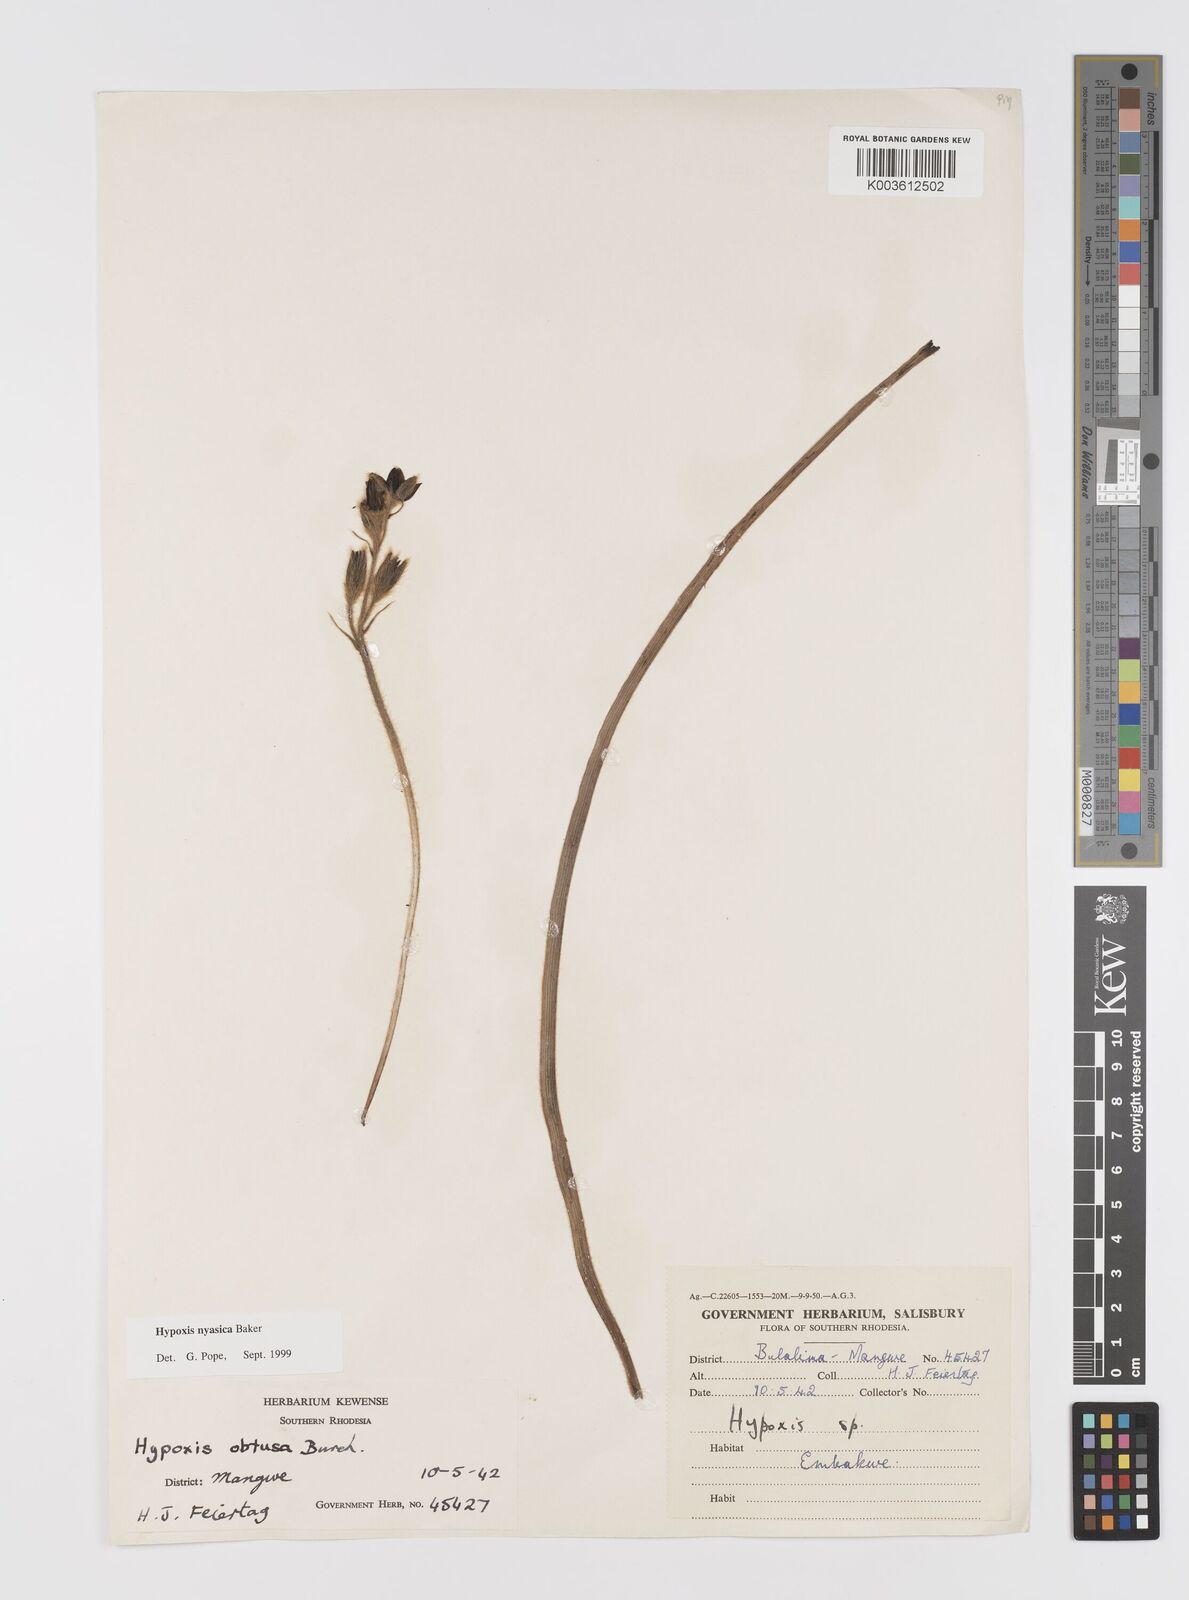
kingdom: Plantae
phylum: Tracheophyta
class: Liliopsida
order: Asparagales
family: Hypoxidaceae
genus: Hypoxis
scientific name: Hypoxis nyasica
